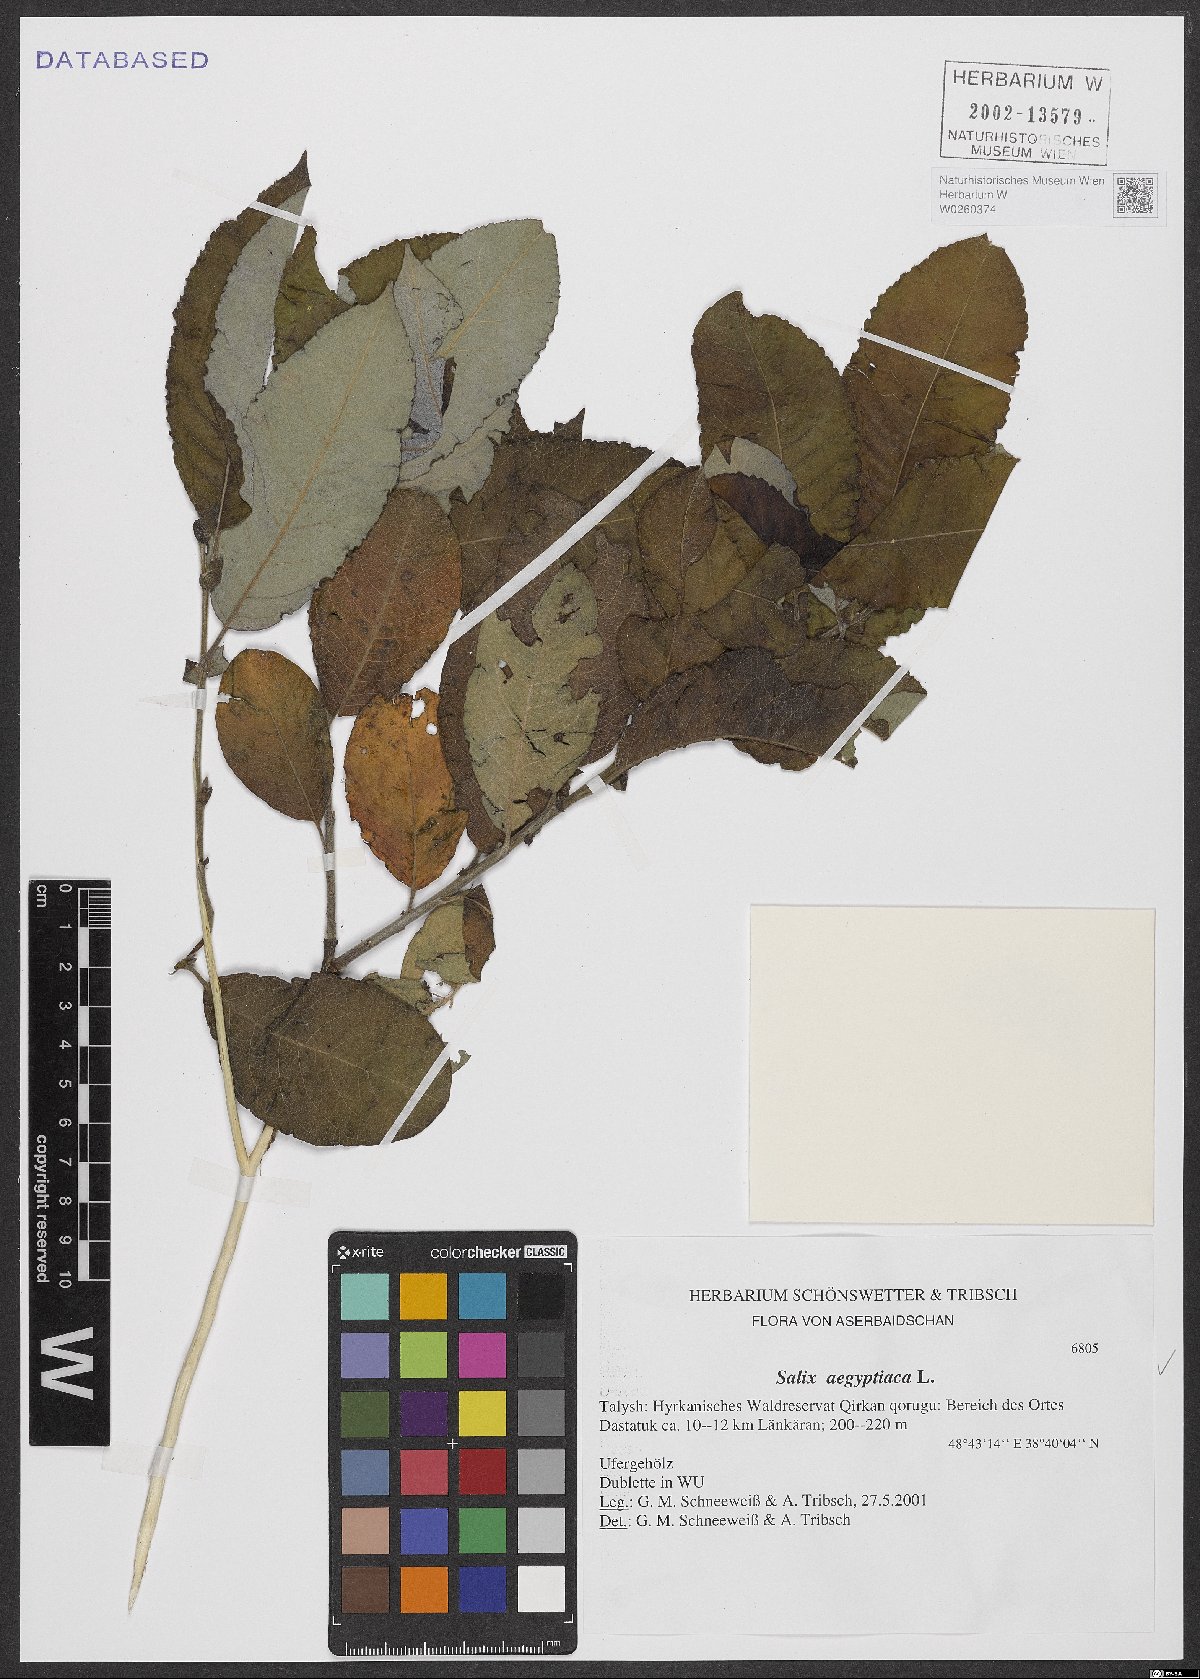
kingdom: Plantae
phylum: Tracheophyta
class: Magnoliopsida
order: Malpighiales
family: Salicaceae
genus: Salix
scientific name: Salix aegyptiaca
